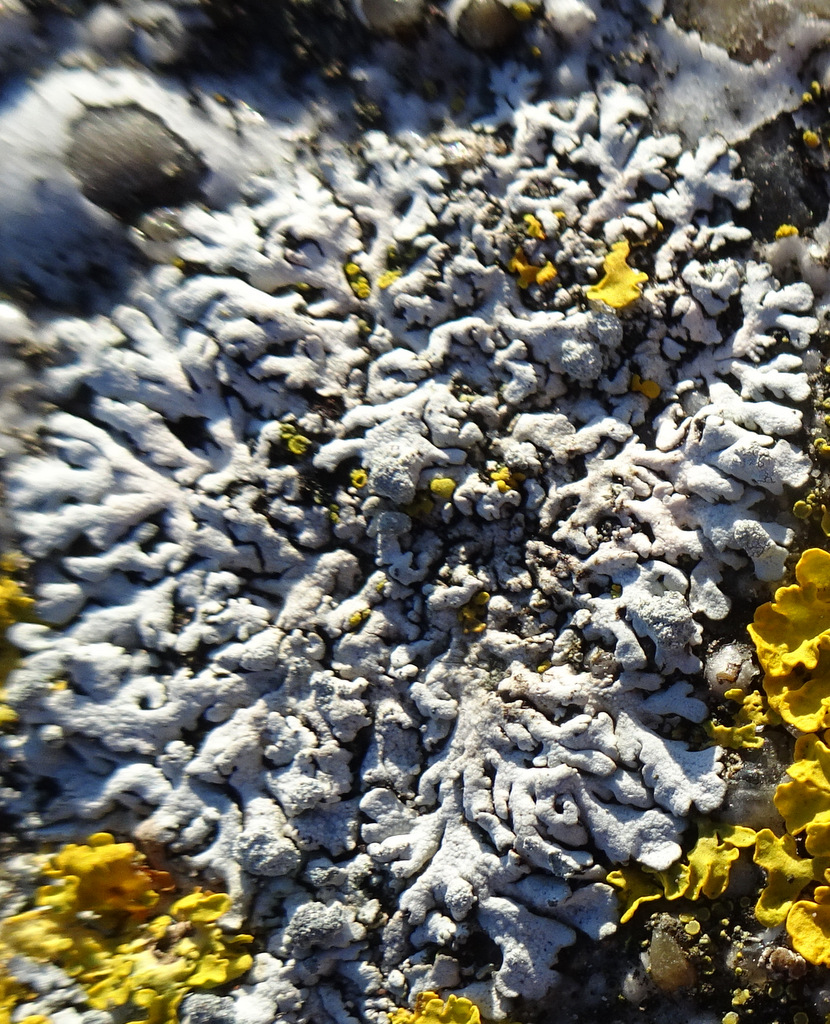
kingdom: Fungi
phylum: Ascomycota
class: Lecanoromycetes
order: Caliciales
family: Physciaceae
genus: Physcia
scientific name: Physcia caesia
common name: blågrå rosetlav
